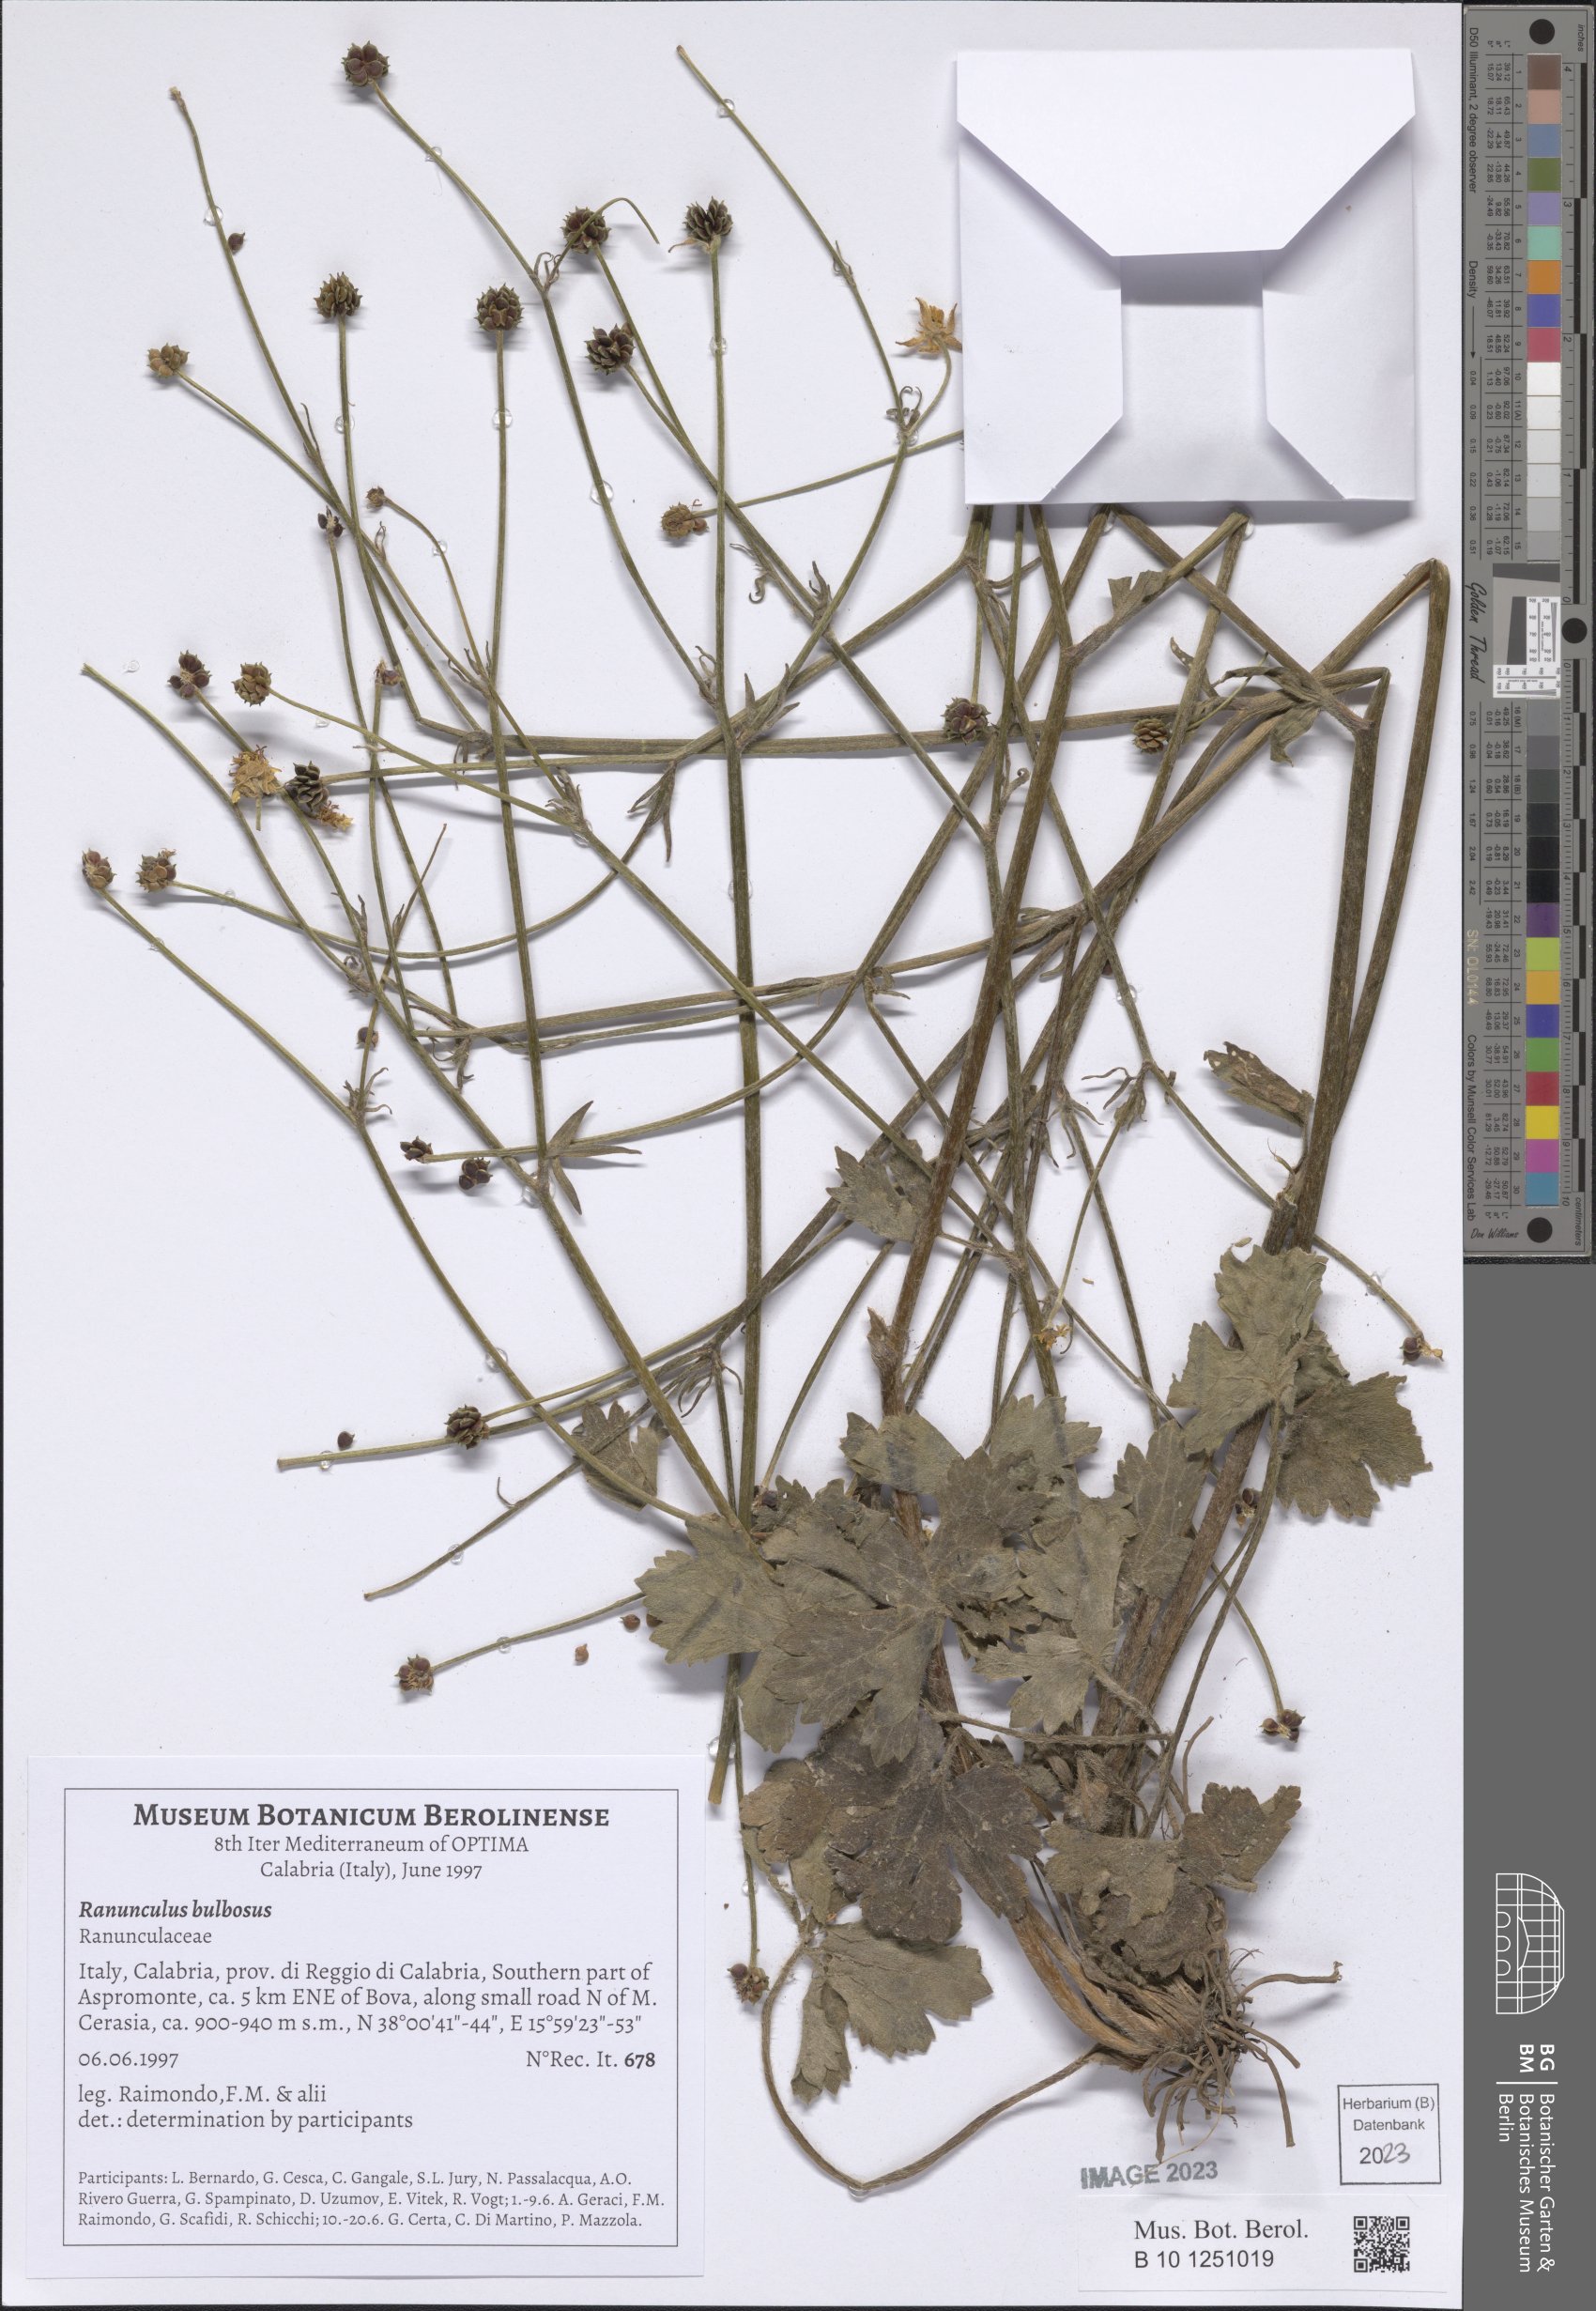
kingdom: Plantae
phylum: Tracheophyta
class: Magnoliopsida
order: Ranunculales
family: Ranunculaceae
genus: Ranunculus
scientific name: Ranunculus bulbosus
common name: Bulbous buttercup
